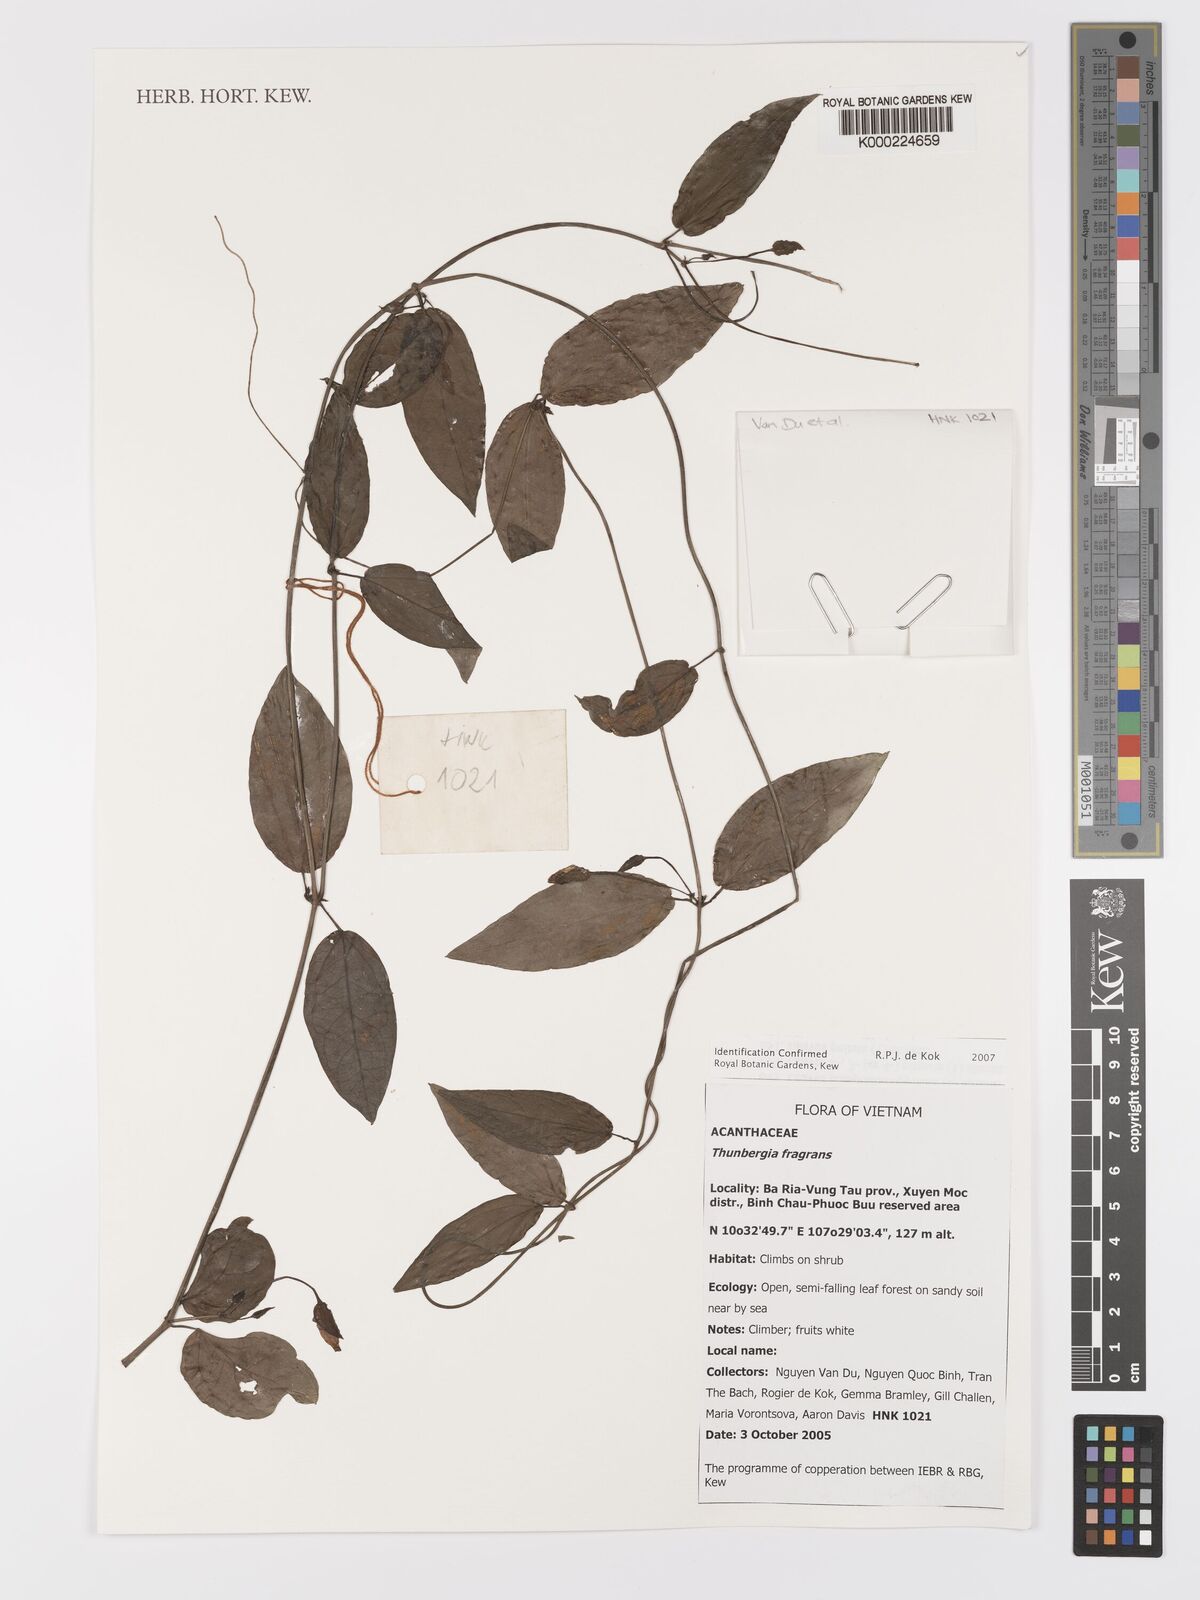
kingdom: Plantae
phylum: Tracheophyta
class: Magnoliopsida
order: Lamiales
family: Acanthaceae
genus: Thunbergia
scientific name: Thunbergia fragrans
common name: Whitelady
